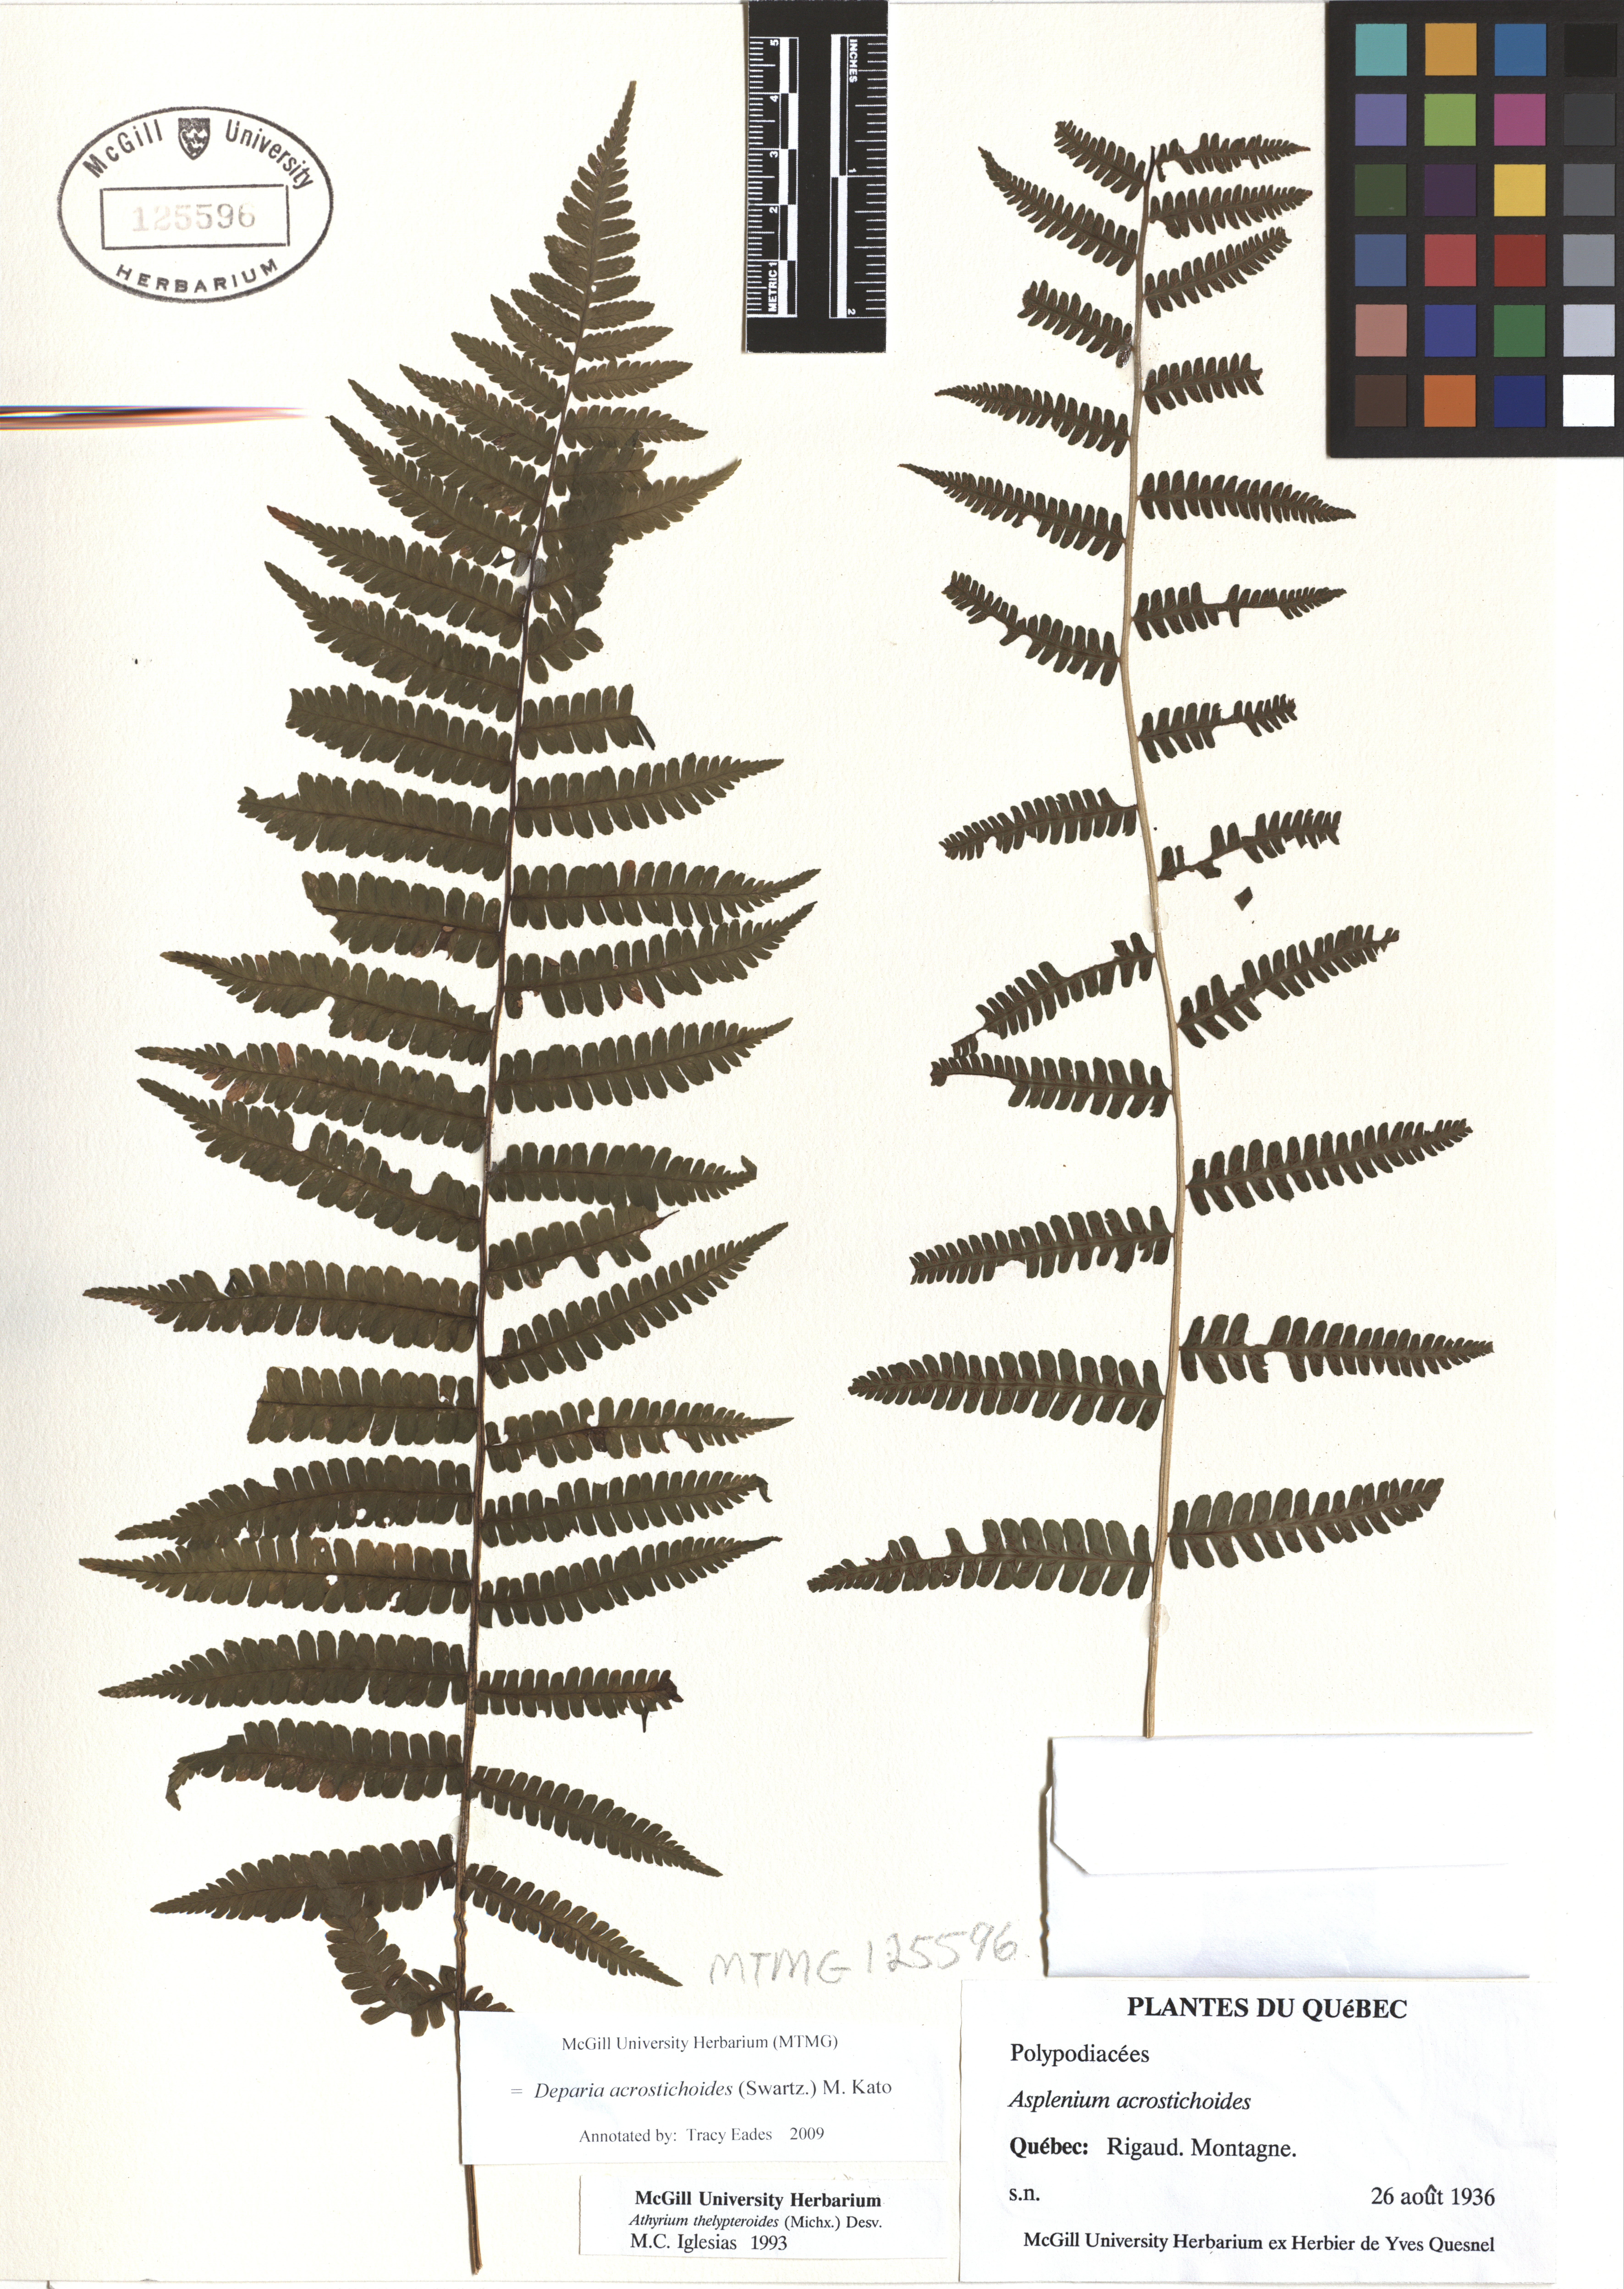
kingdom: Plantae
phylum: Tracheophyta
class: Polypodiopsida
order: Polypodiales
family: Athyriaceae
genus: Deparia
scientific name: Deparia acrostichoides
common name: Silver false spleenwort
